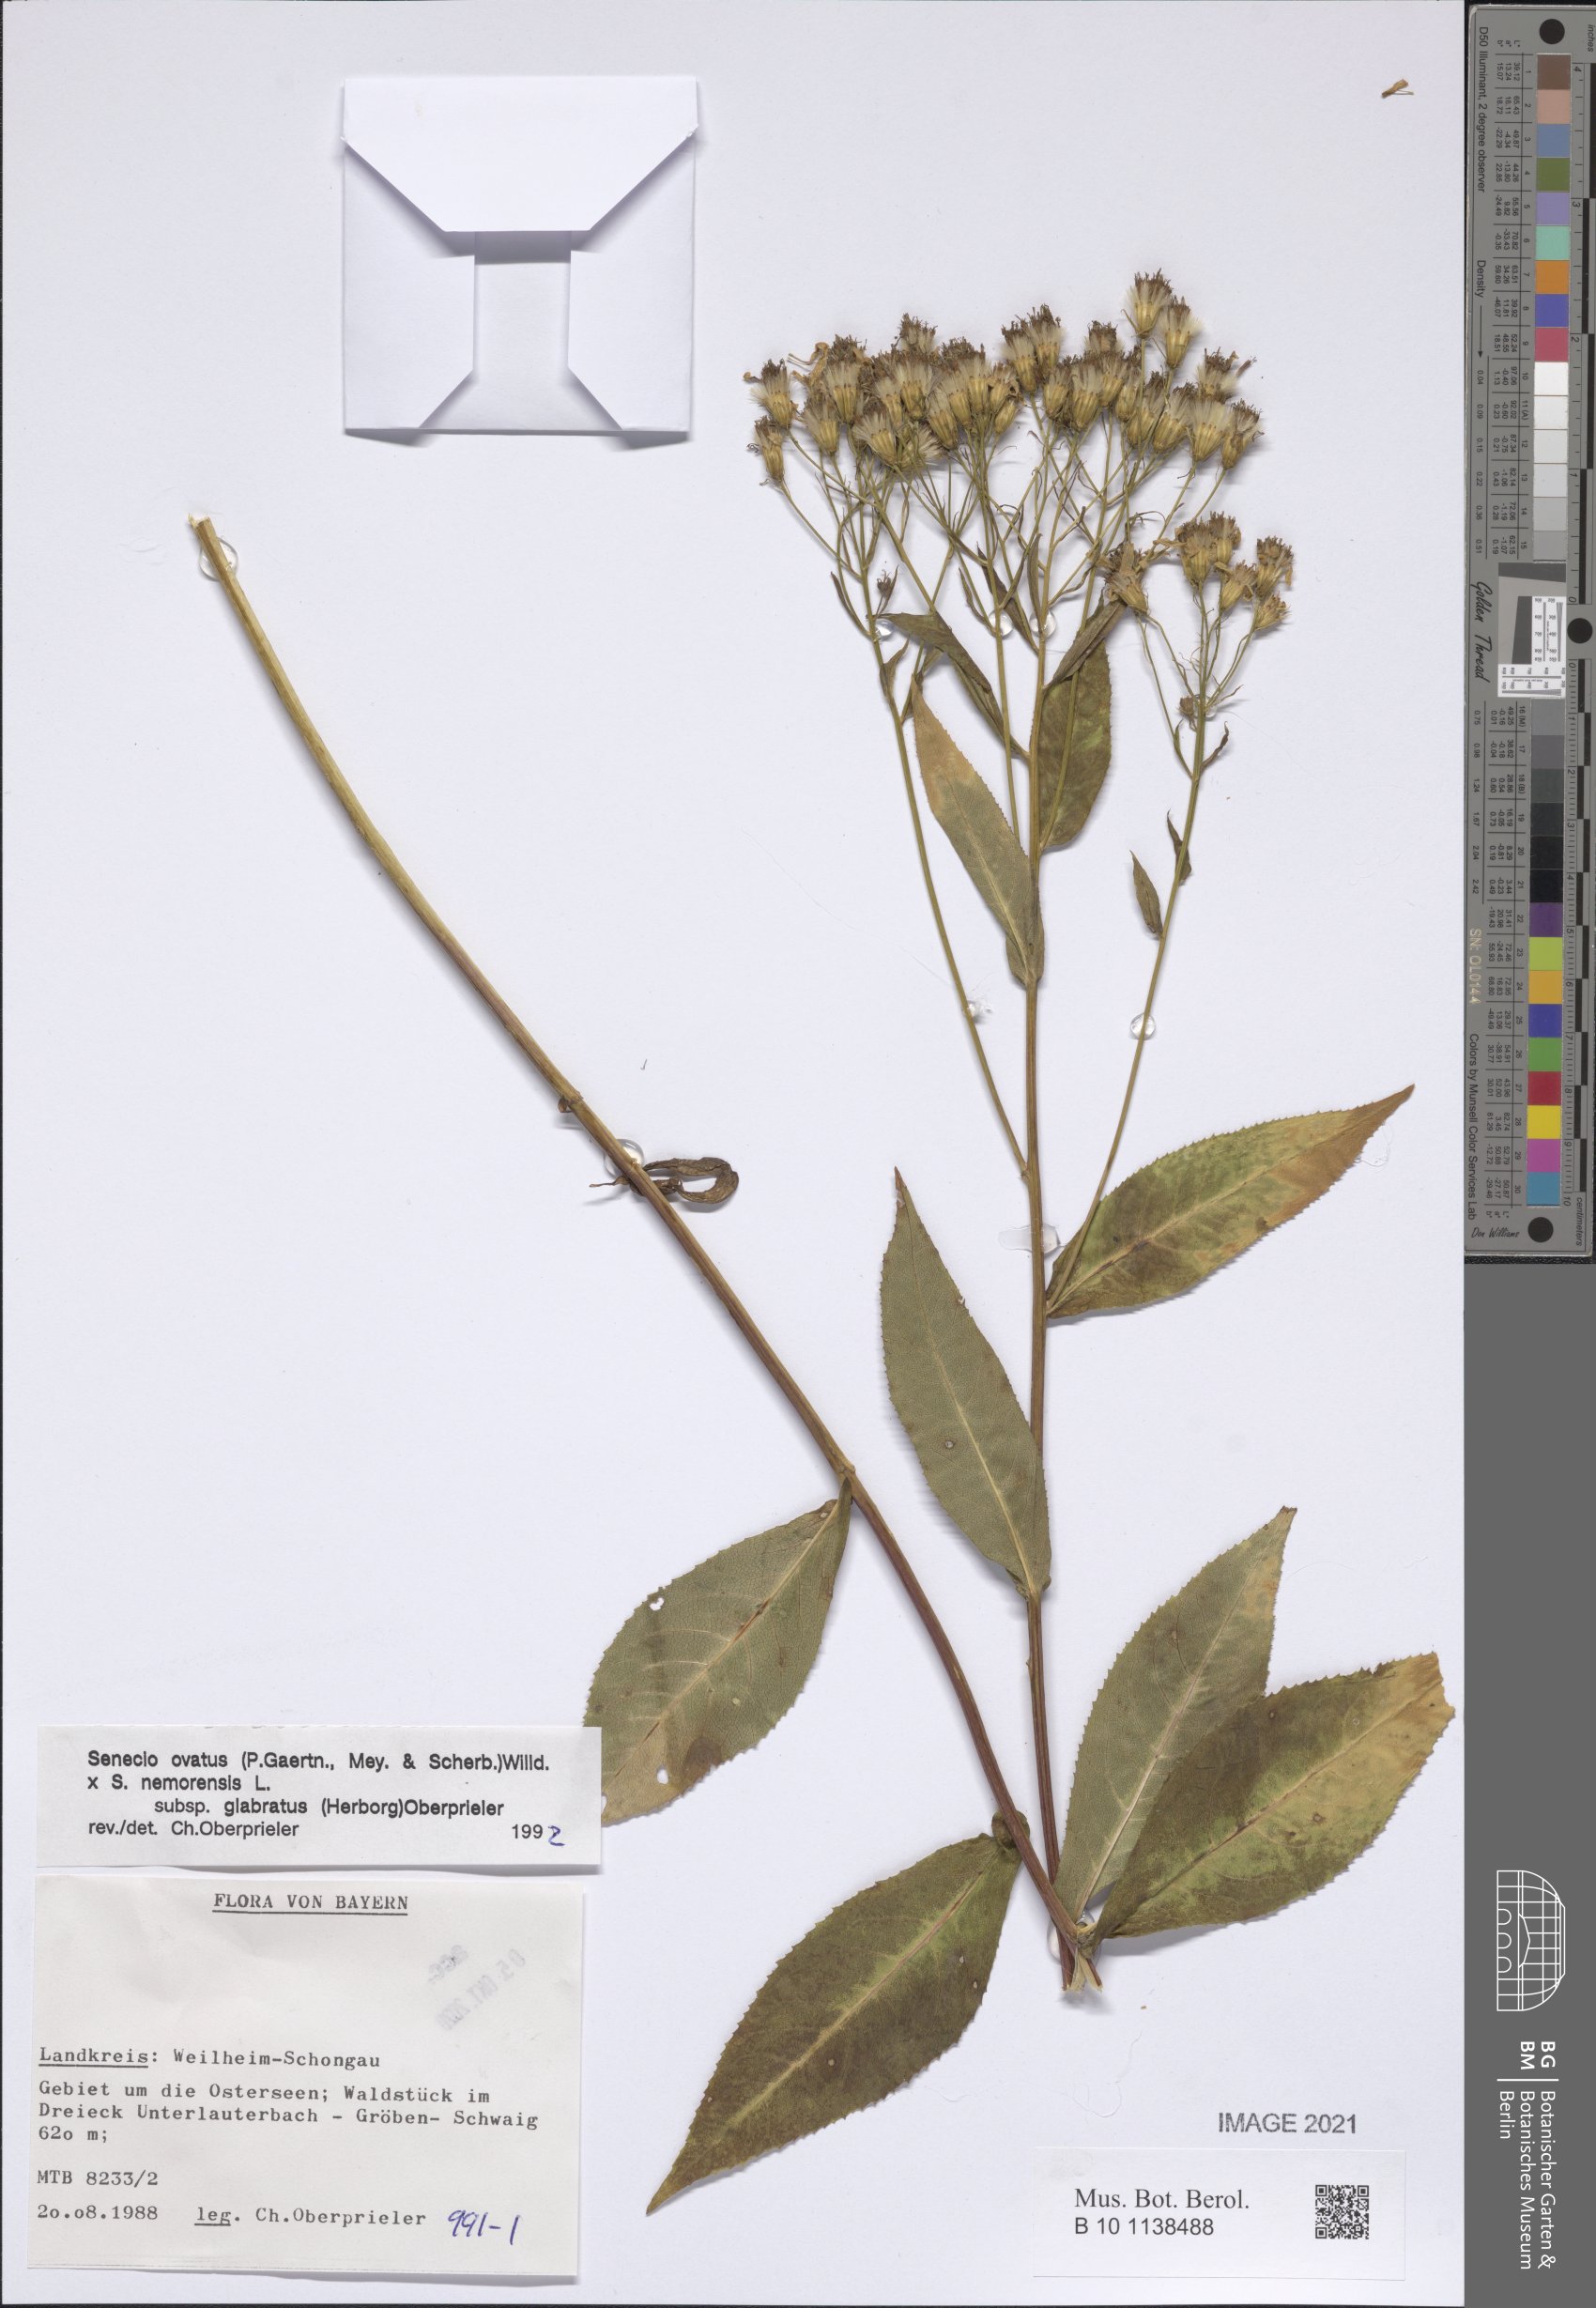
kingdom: Plantae
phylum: Tracheophyta
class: Magnoliopsida
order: Asterales
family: Asteraceae
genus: Senecio
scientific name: Senecio ovatus
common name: Wood ragwort
